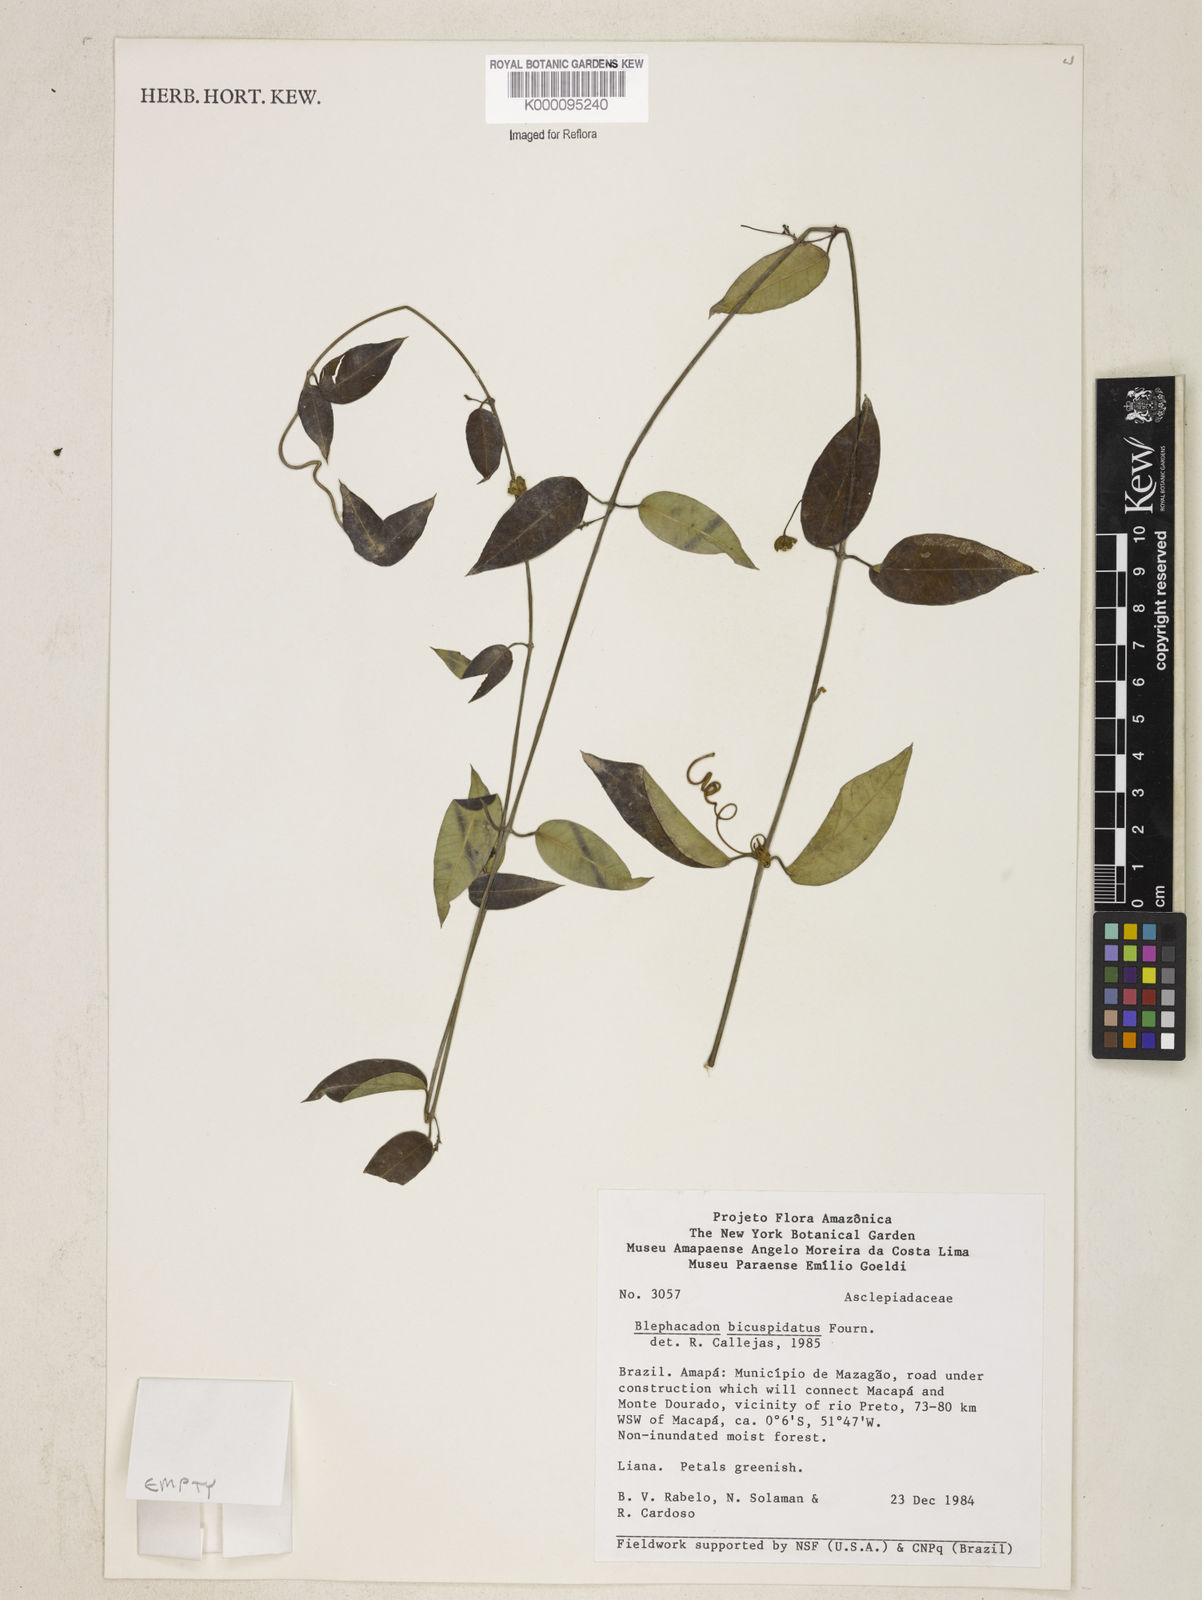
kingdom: Plantae
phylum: Tracheophyta
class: Magnoliopsida
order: Gentianales
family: Apocynaceae
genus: Blepharodon
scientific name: Blepharodon bicuspidatum
